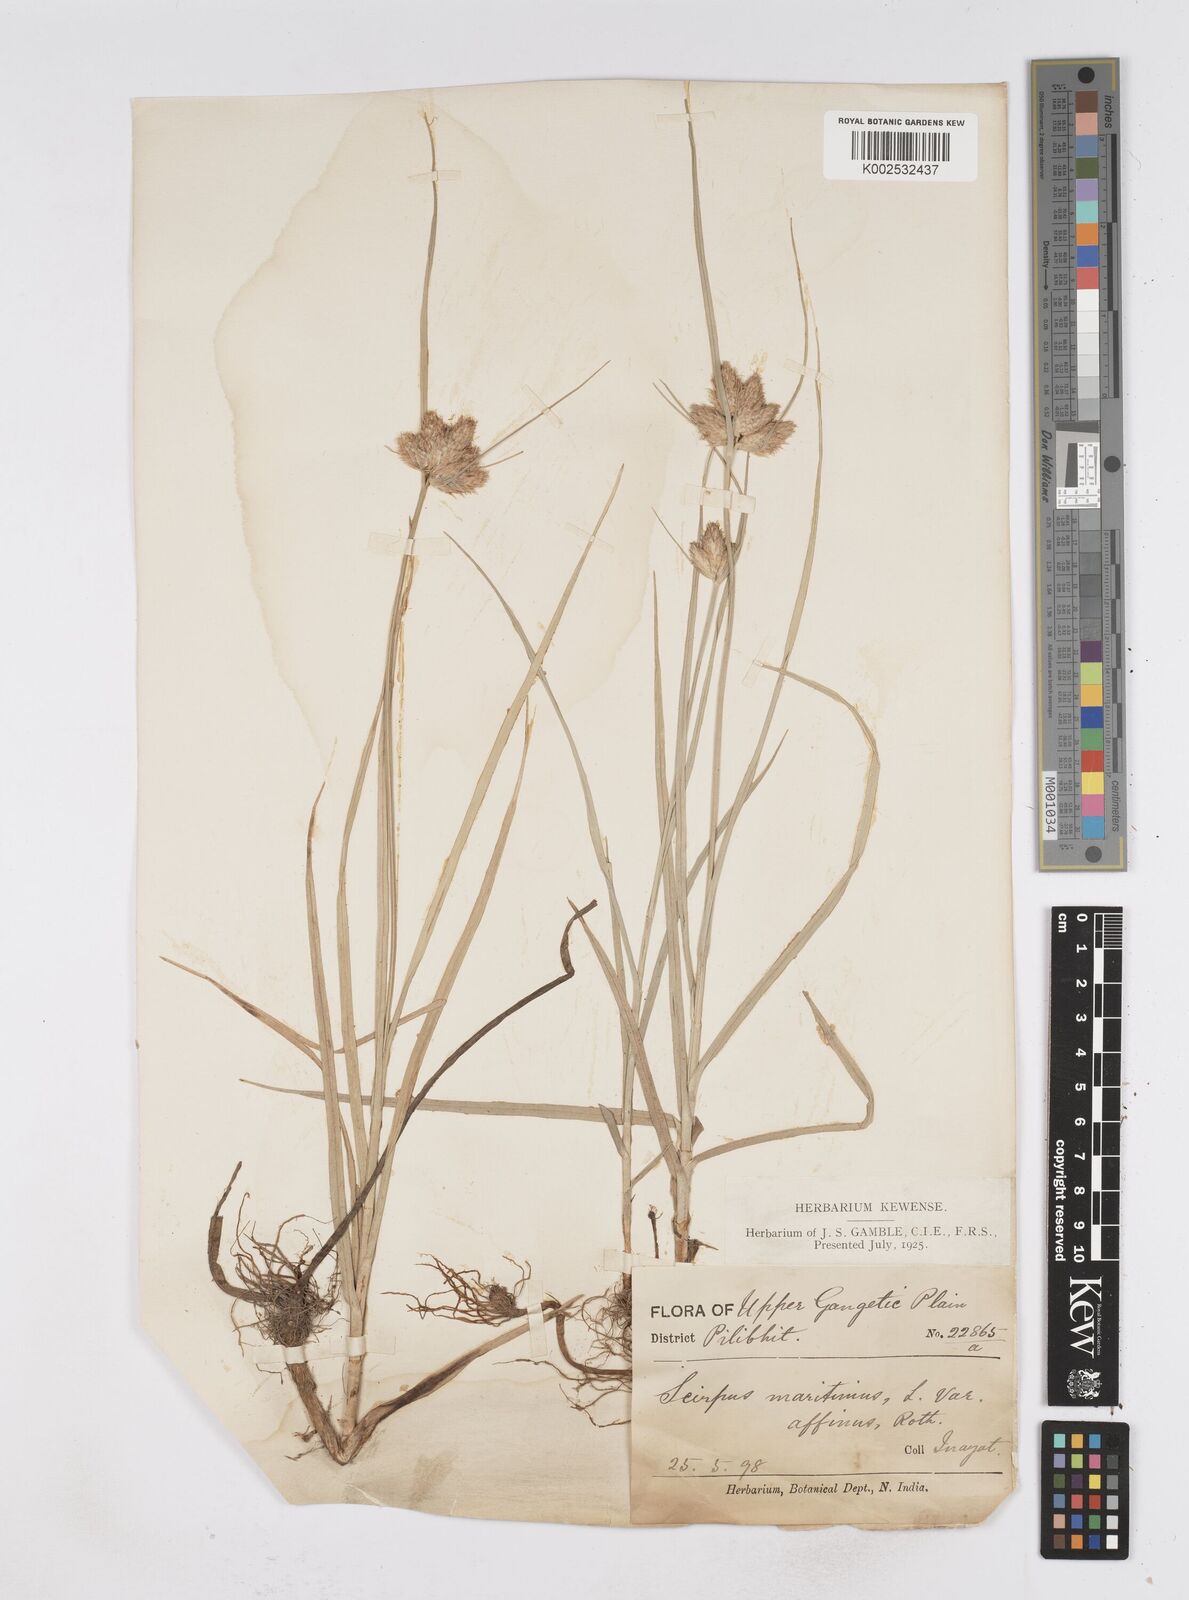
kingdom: Plantae
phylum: Tracheophyta
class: Liliopsida
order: Poales
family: Cyperaceae
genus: Bolboschoenus
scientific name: Bolboschoenus maritimus
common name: Sea club-rush
